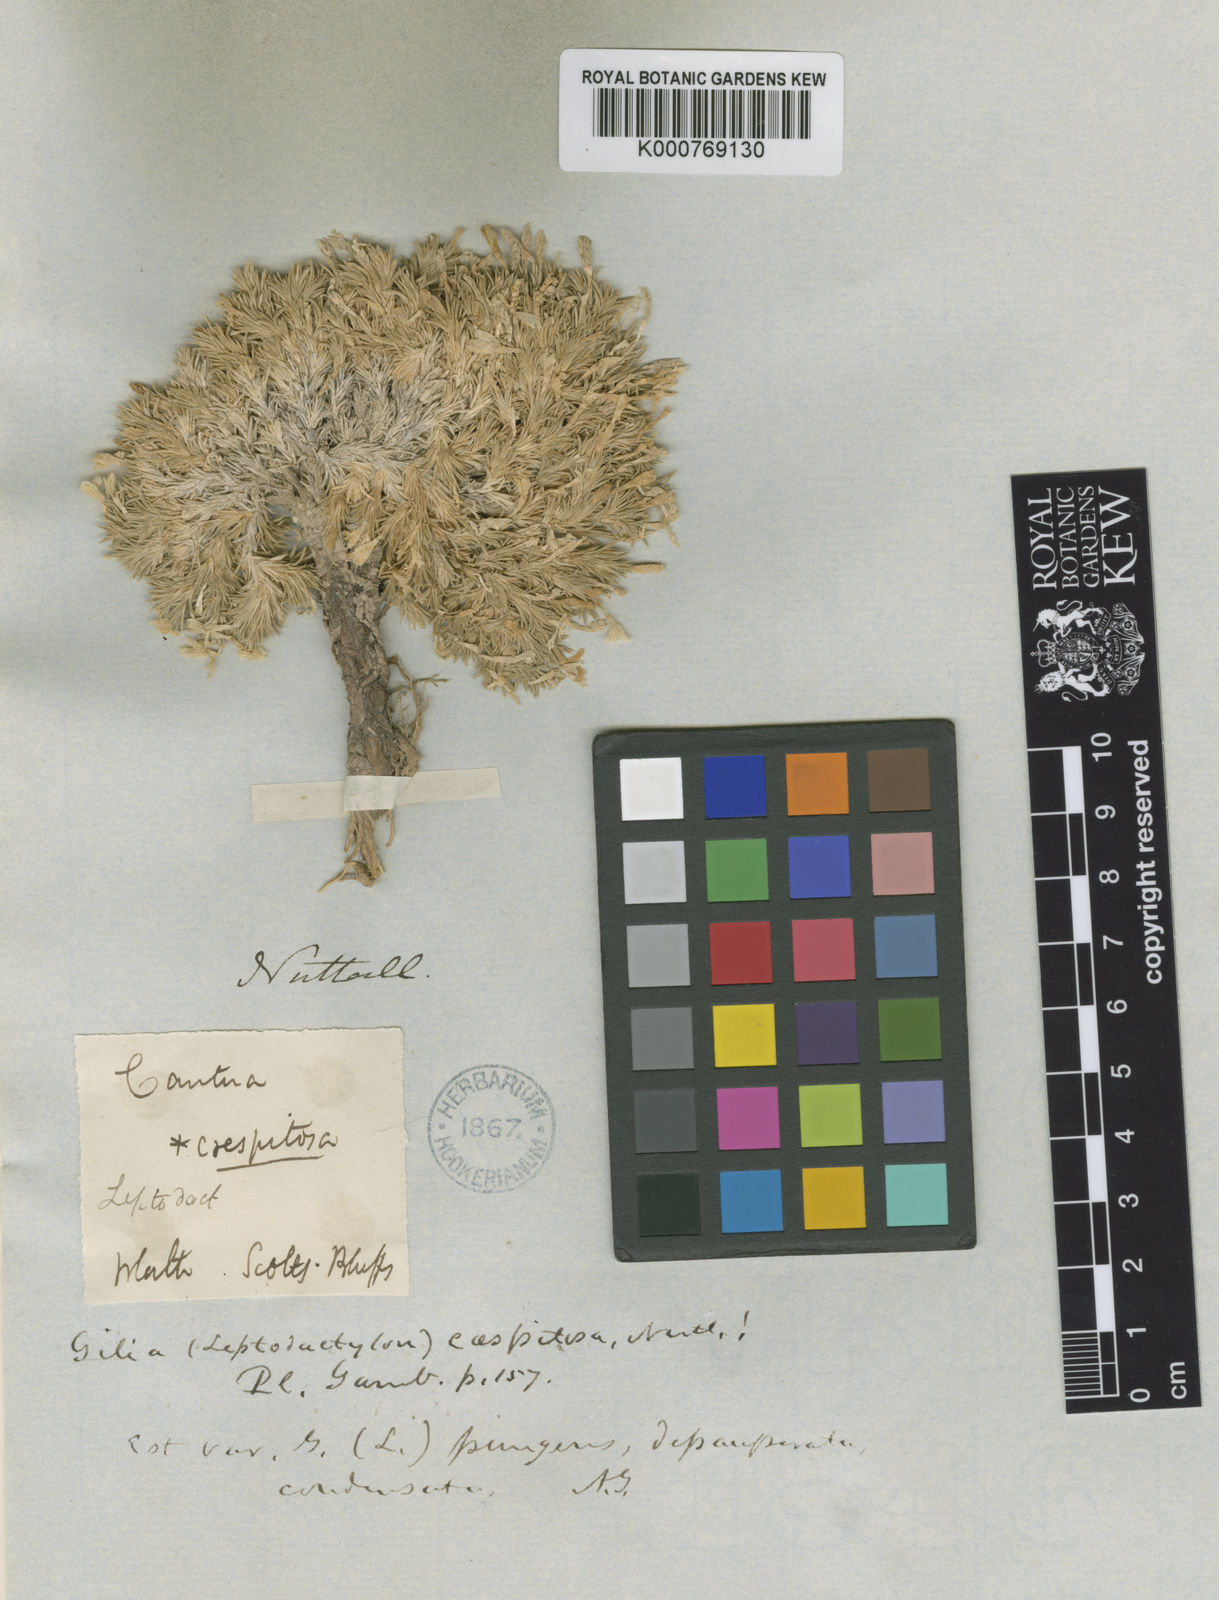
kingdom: Plantae
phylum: Tracheophyta
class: Magnoliopsida
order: Ericales
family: Polemoniaceae
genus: Linanthus
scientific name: Linanthus caespitosus
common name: Mat prickly phlox
